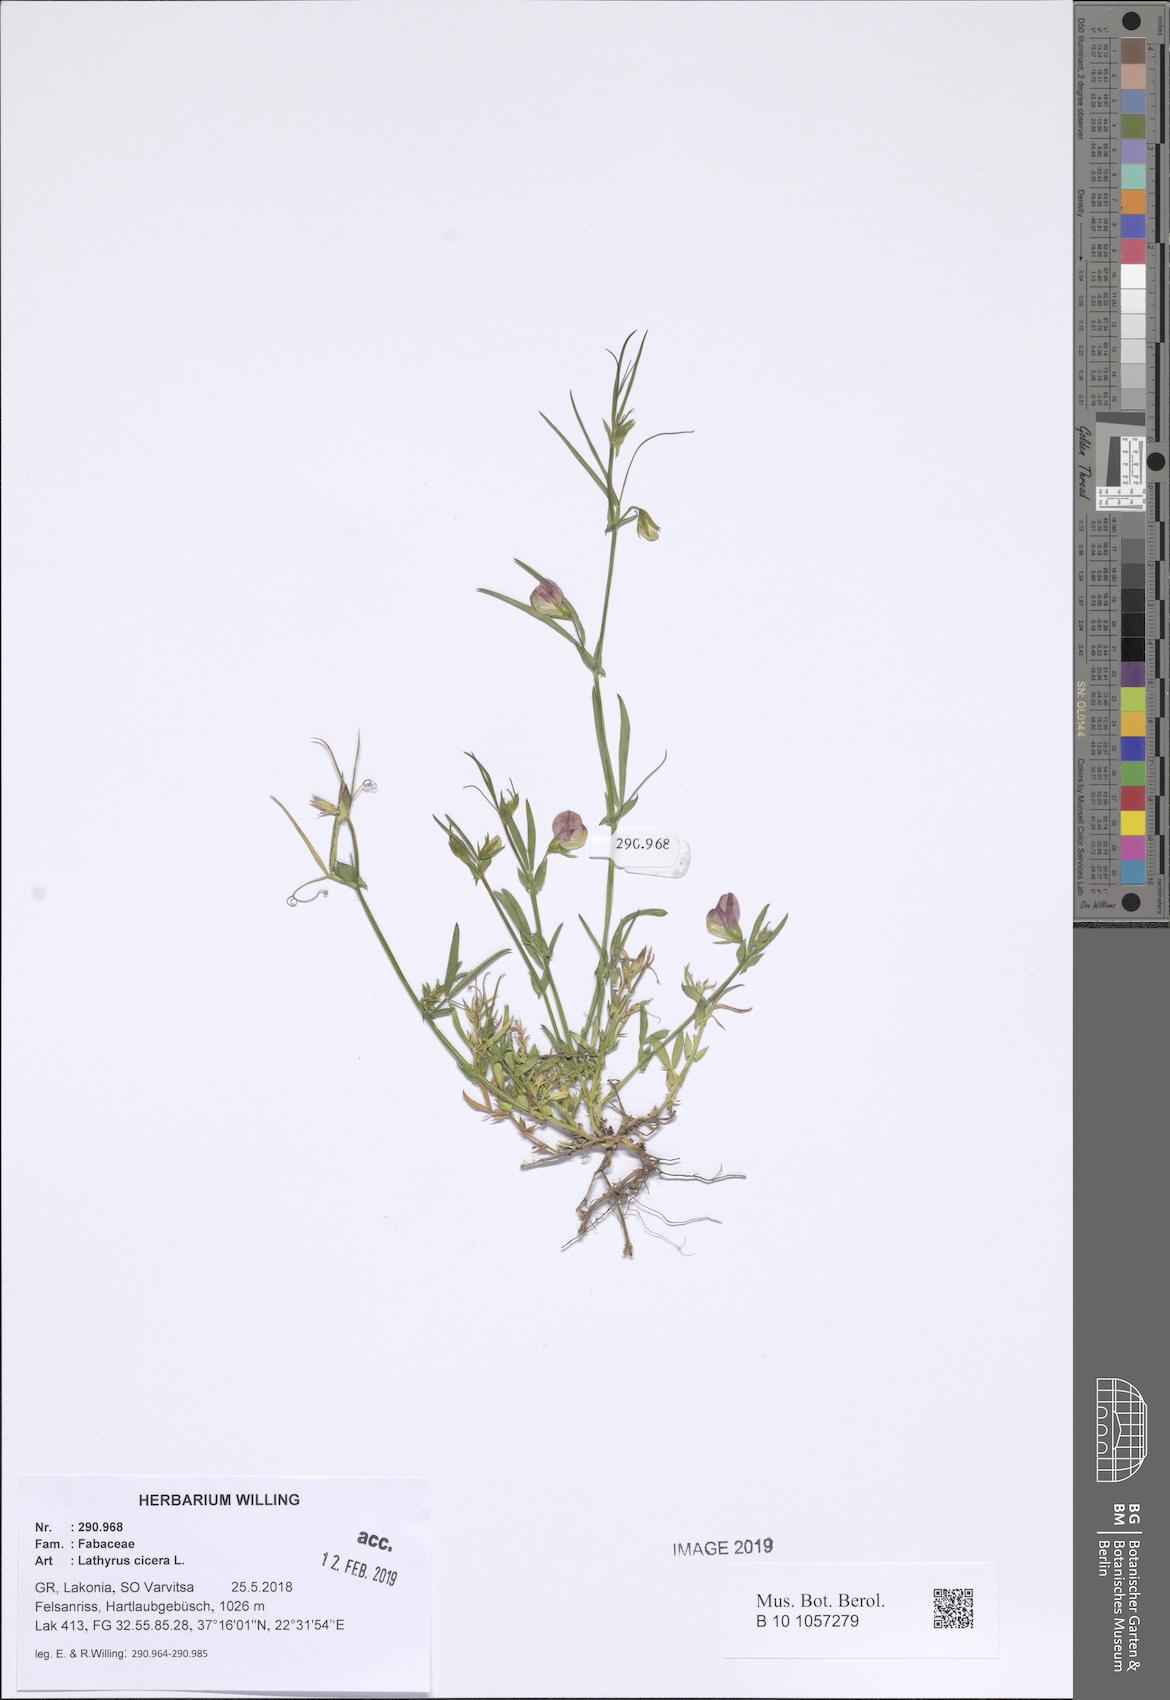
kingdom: Plantae
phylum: Tracheophyta
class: Magnoliopsida
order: Fabales
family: Fabaceae
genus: Lathyrus
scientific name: Lathyrus cicera
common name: Red vetchling
